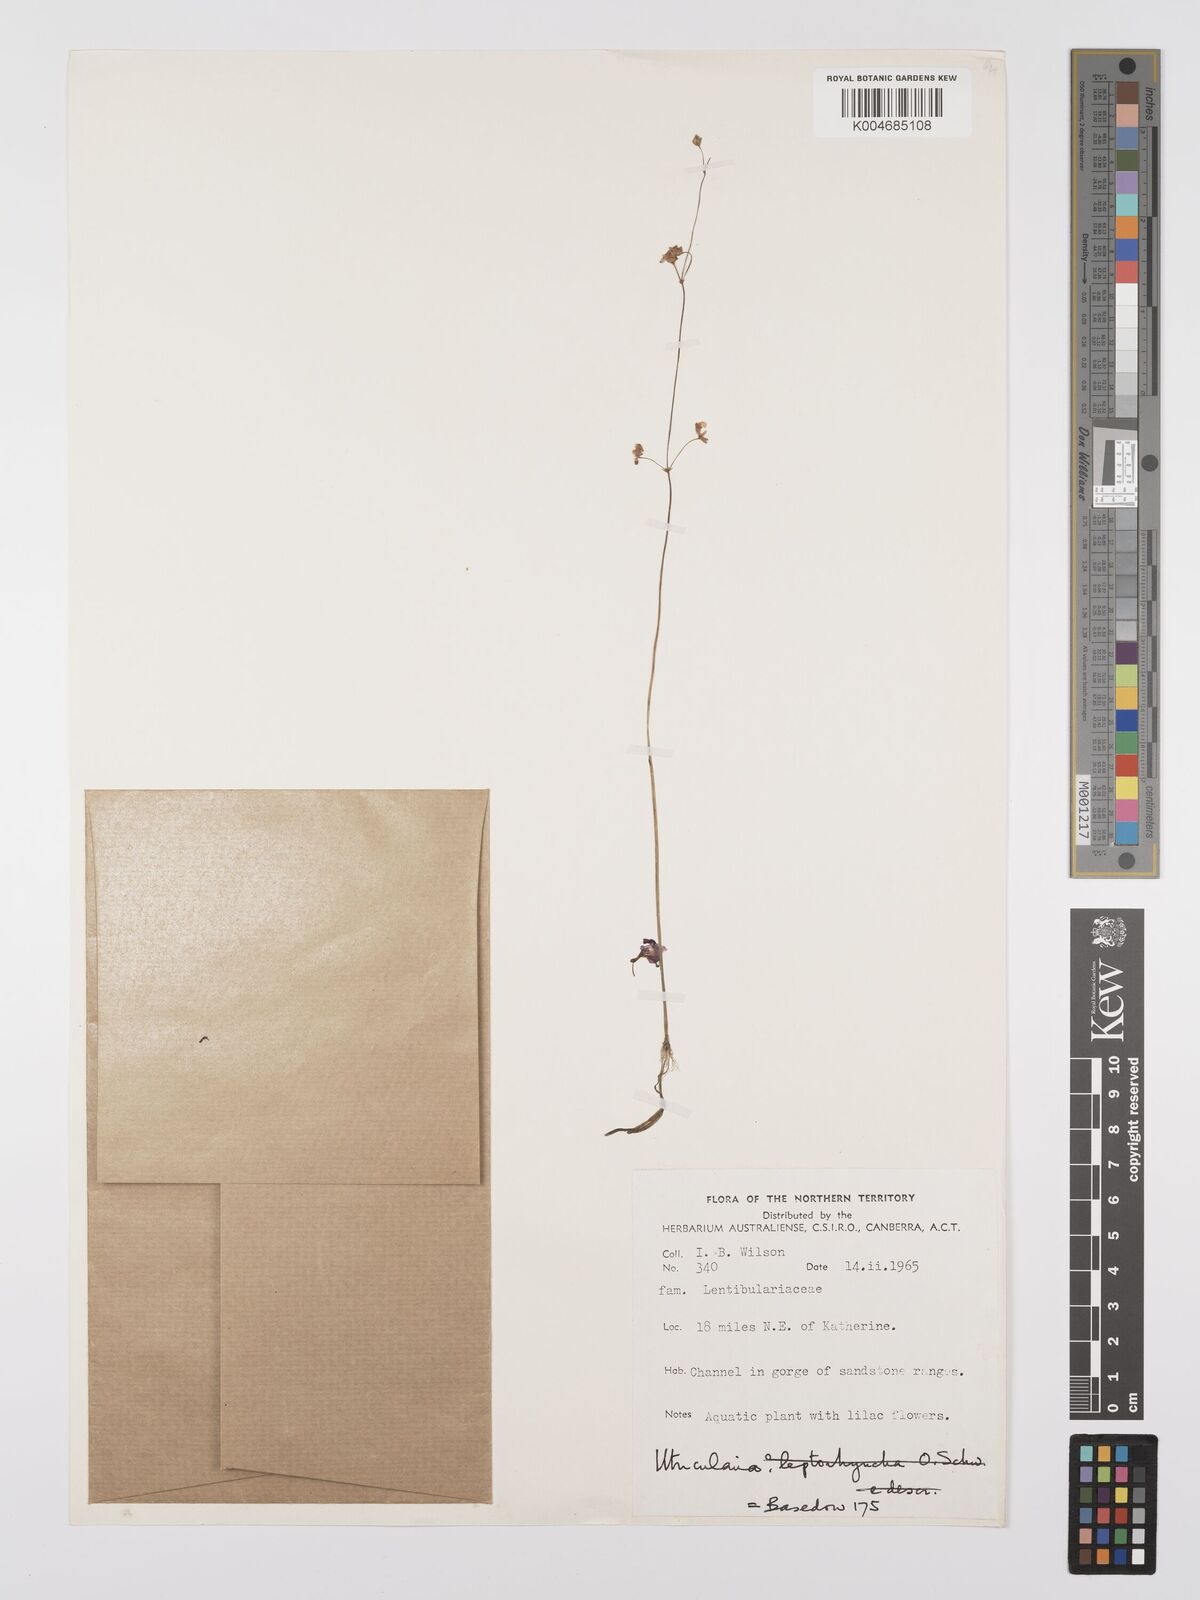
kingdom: Plantae
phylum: Tracheophyta
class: Magnoliopsida
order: Lamiales
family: Lentibulariaceae
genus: Utricularia
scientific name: Utricularia arnhemica
